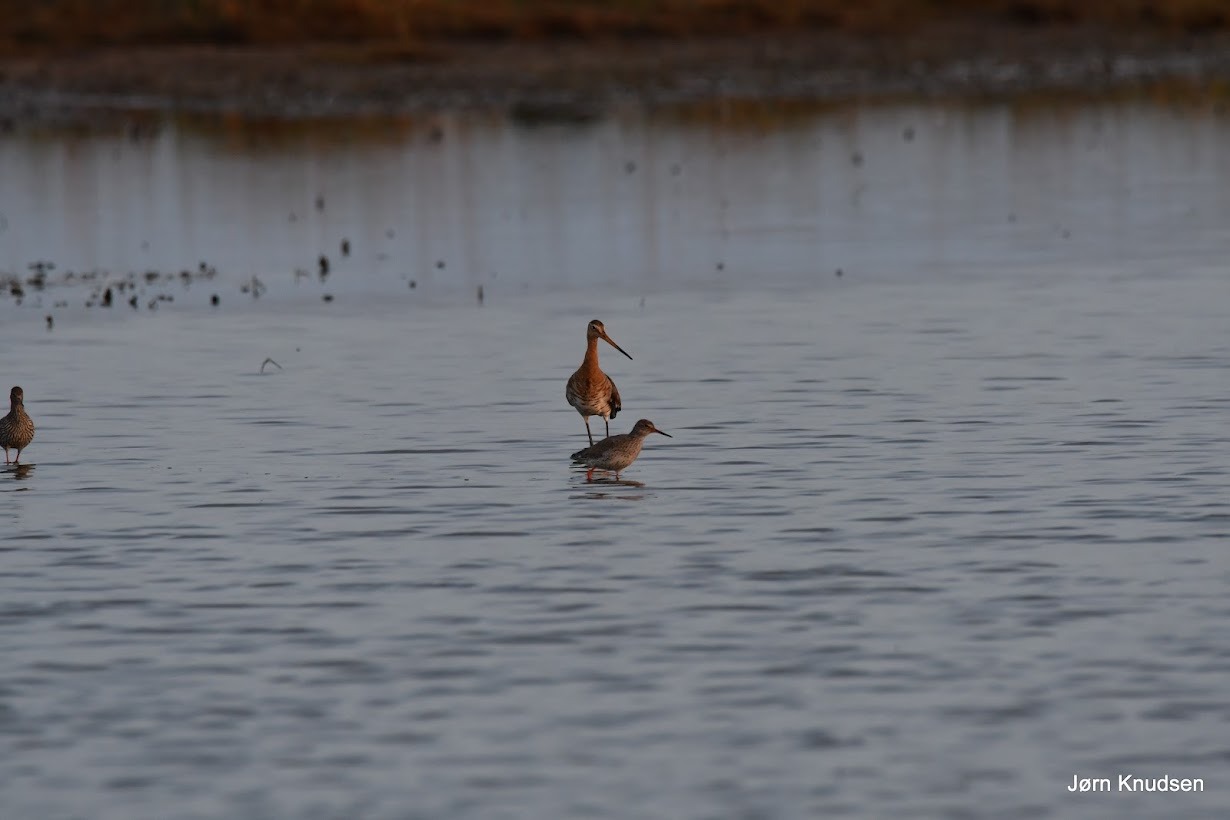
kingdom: Animalia
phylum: Chordata
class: Aves
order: Charadriiformes
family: Scolopacidae
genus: Limosa
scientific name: Limosa limosa
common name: Stor kobbersneppe
